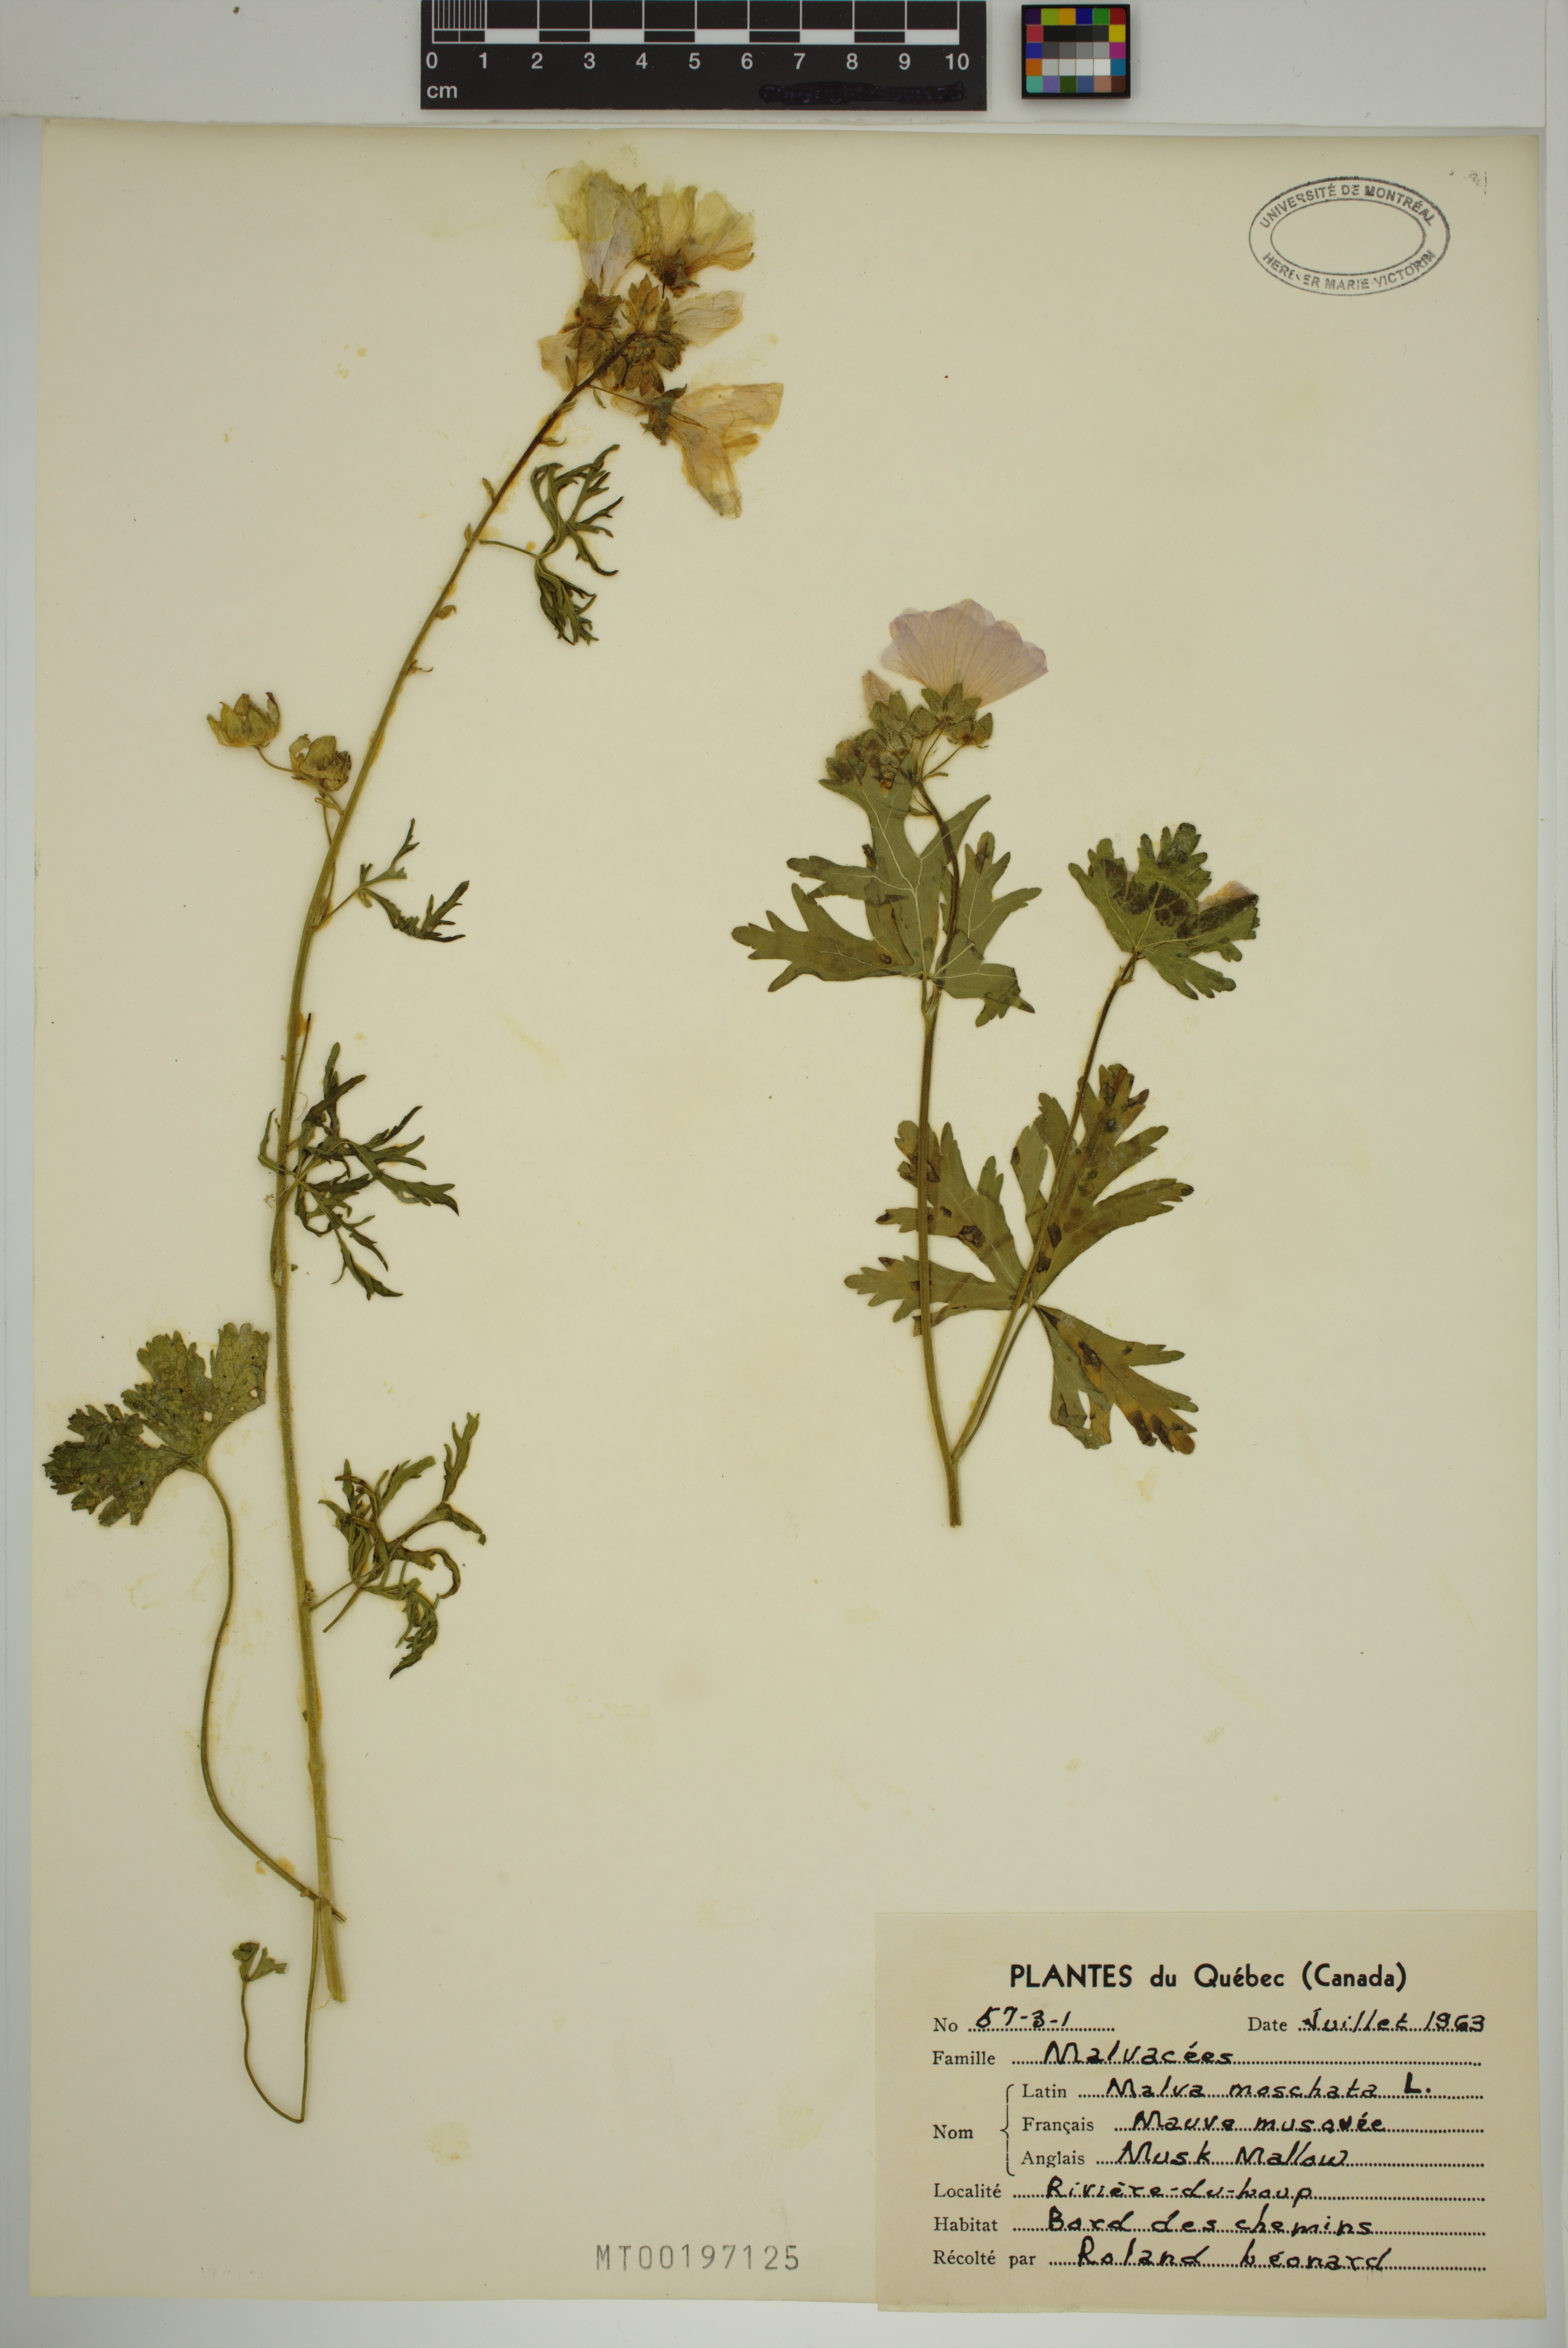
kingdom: Plantae
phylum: Tracheophyta
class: Magnoliopsida
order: Malvales
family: Malvaceae
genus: Malva
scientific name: Malva moschata
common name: Musk mallow
